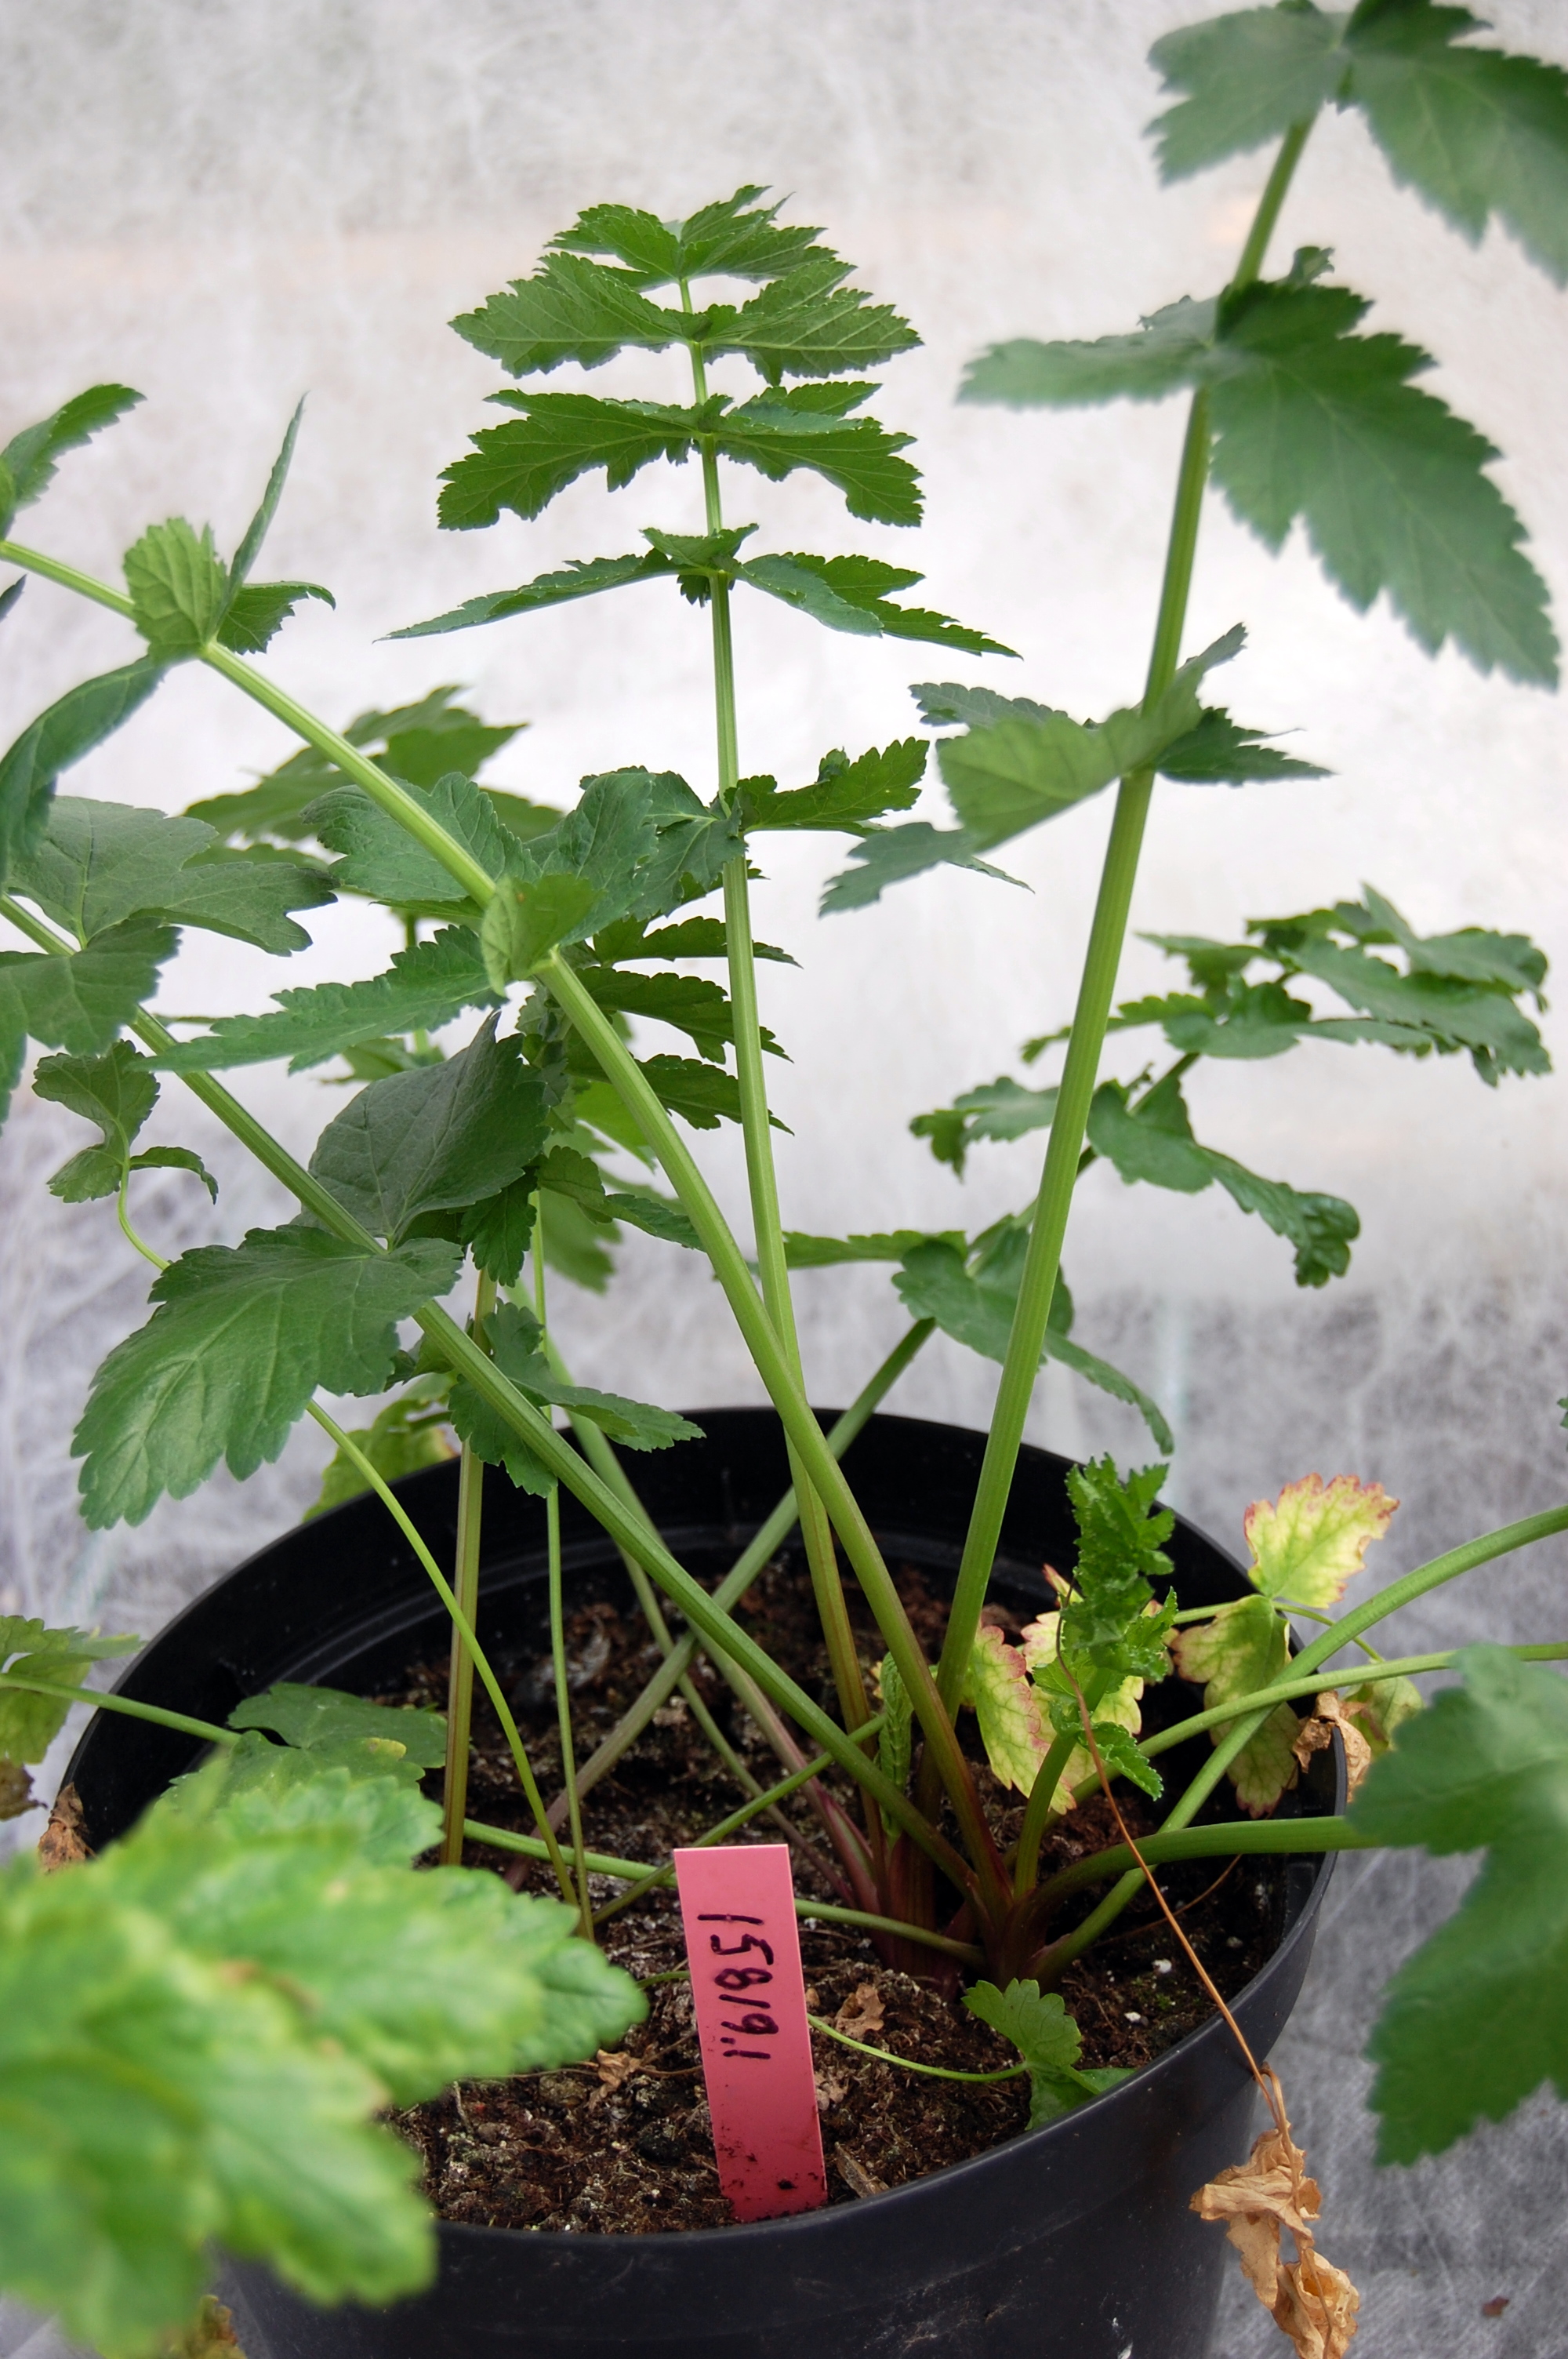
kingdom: Plantae
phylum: Tracheophyta
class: Magnoliopsida
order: Apiales
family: Apiaceae
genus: Pastinaca
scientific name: Pastinaca sativa
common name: Wild parsnip
